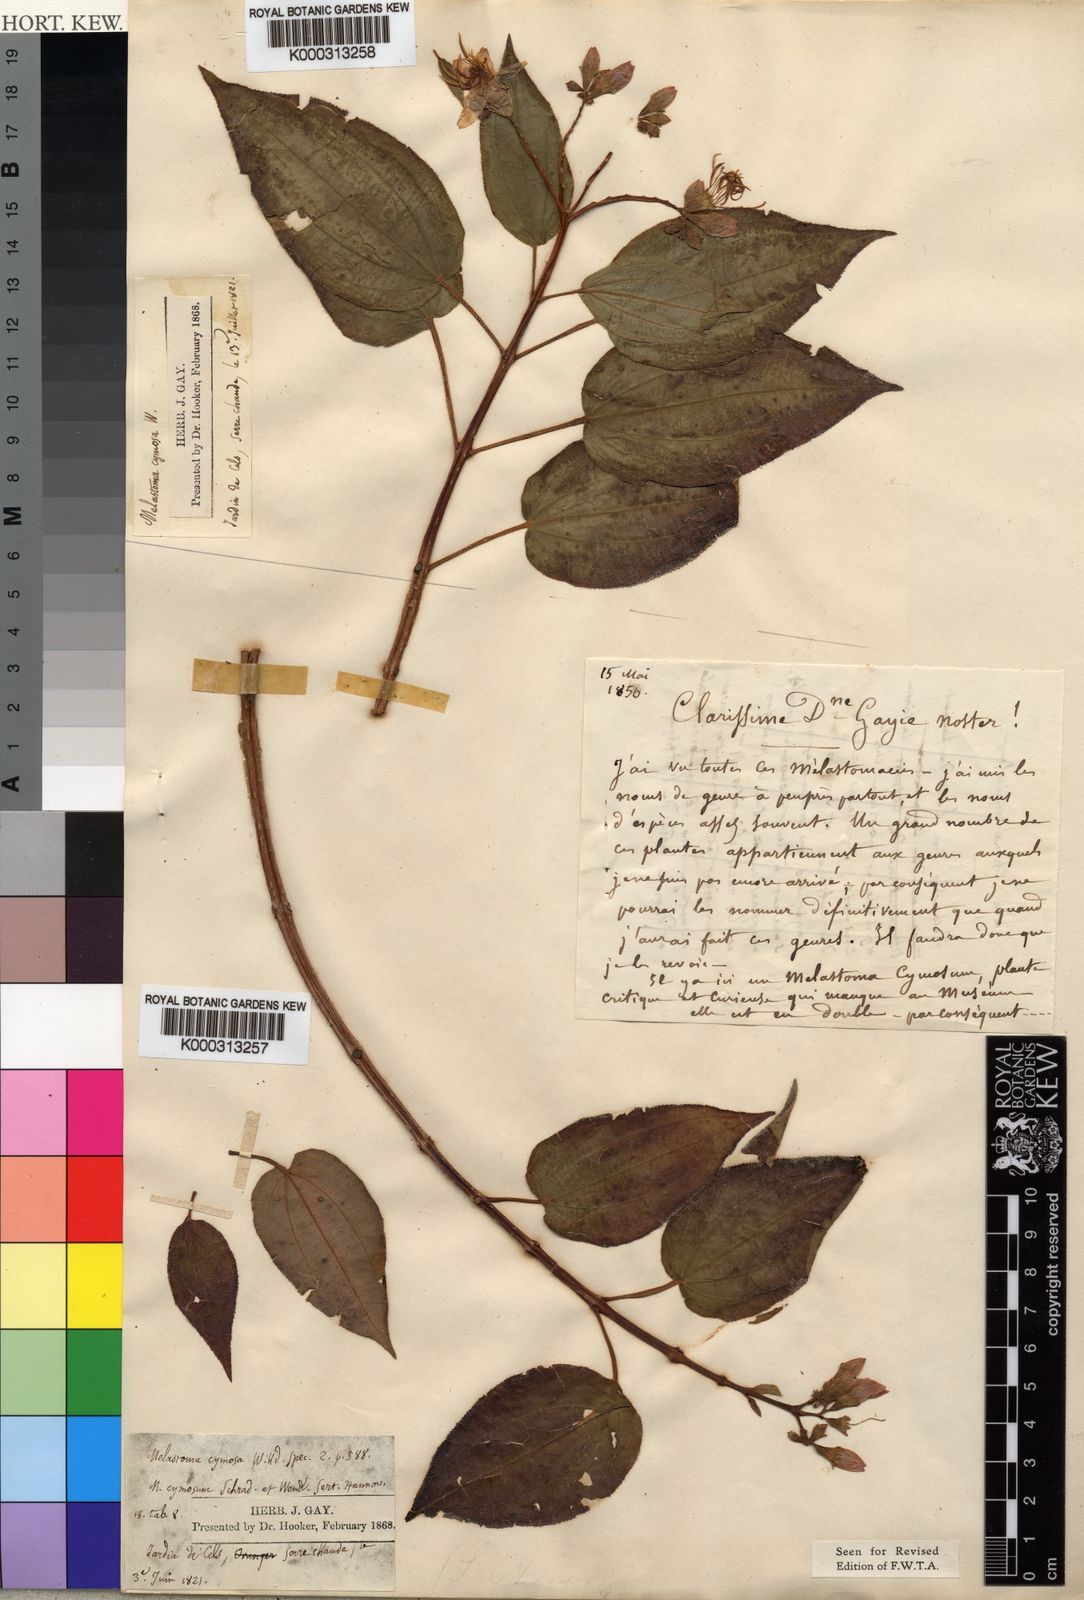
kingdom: Plantae
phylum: Tracheophyta
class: Magnoliopsida
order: Myrtales
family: Melastomataceae
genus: Amphiblemma
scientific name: Amphiblemma cymosum
